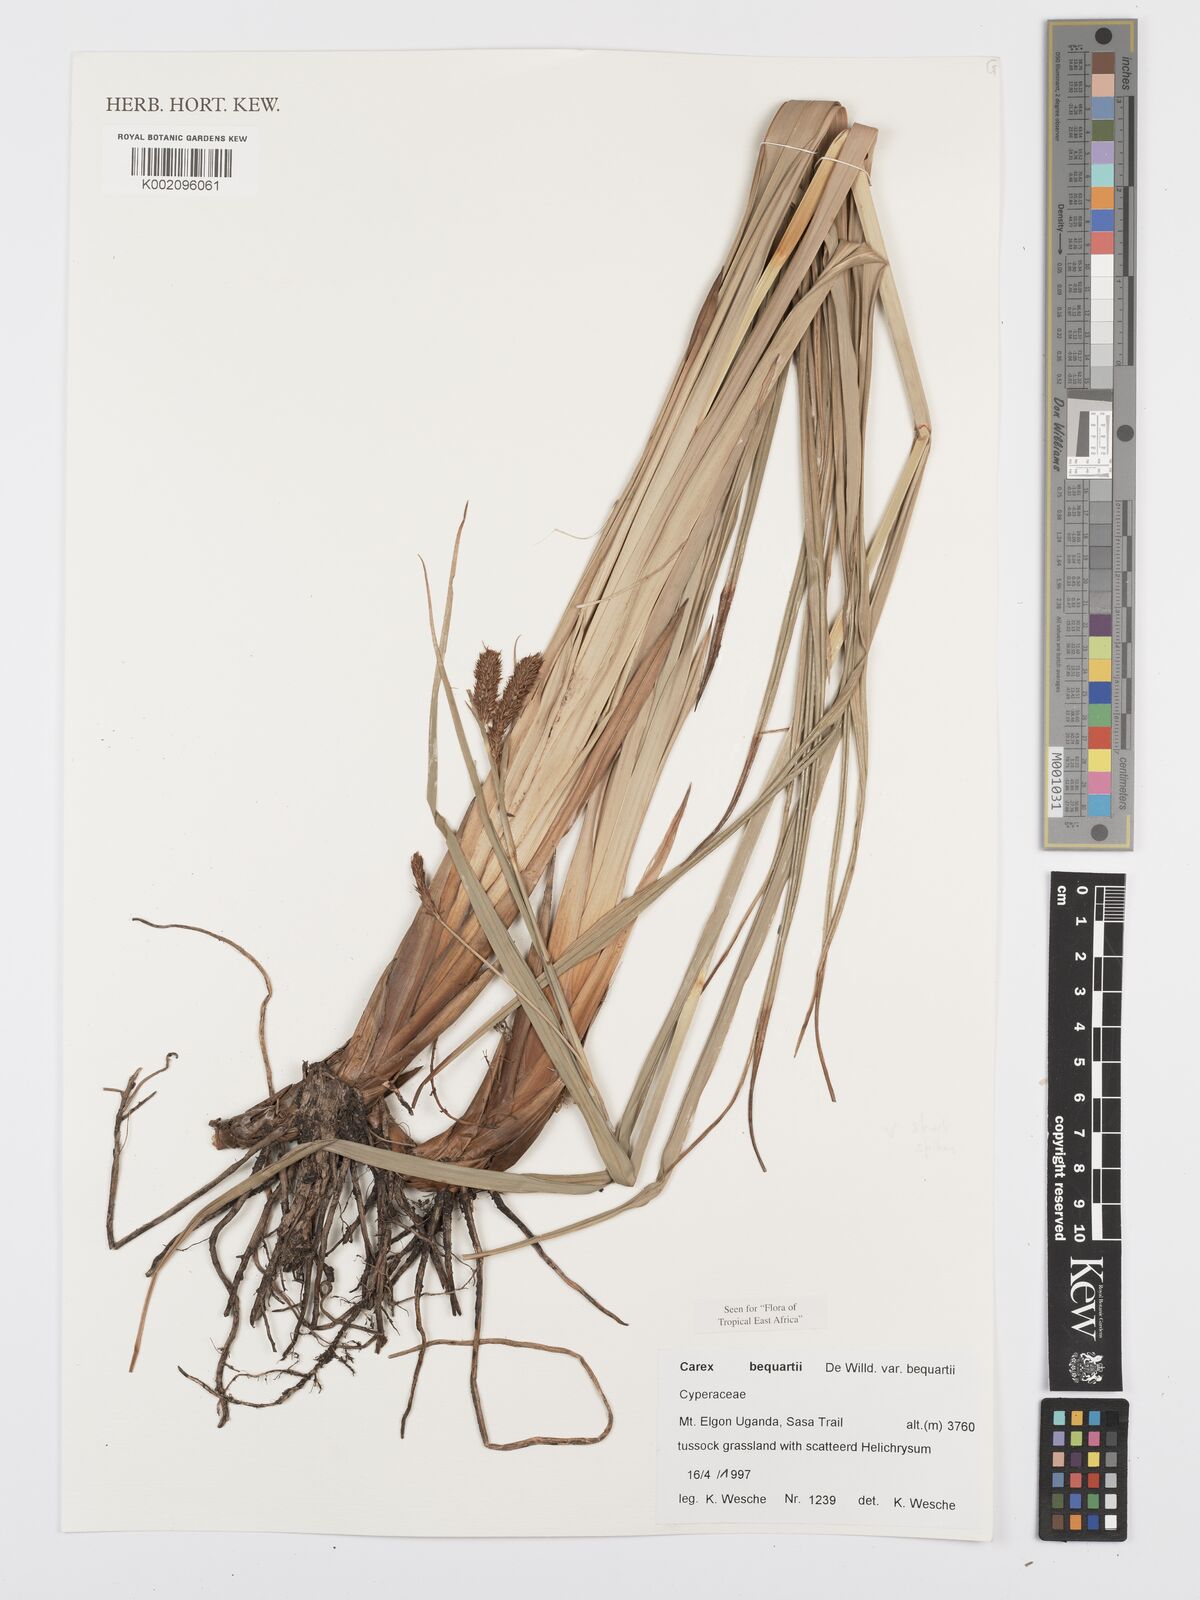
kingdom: Plantae
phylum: Tracheophyta
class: Liliopsida
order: Poales
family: Cyperaceae
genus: Carex
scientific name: Carex bequaertii
